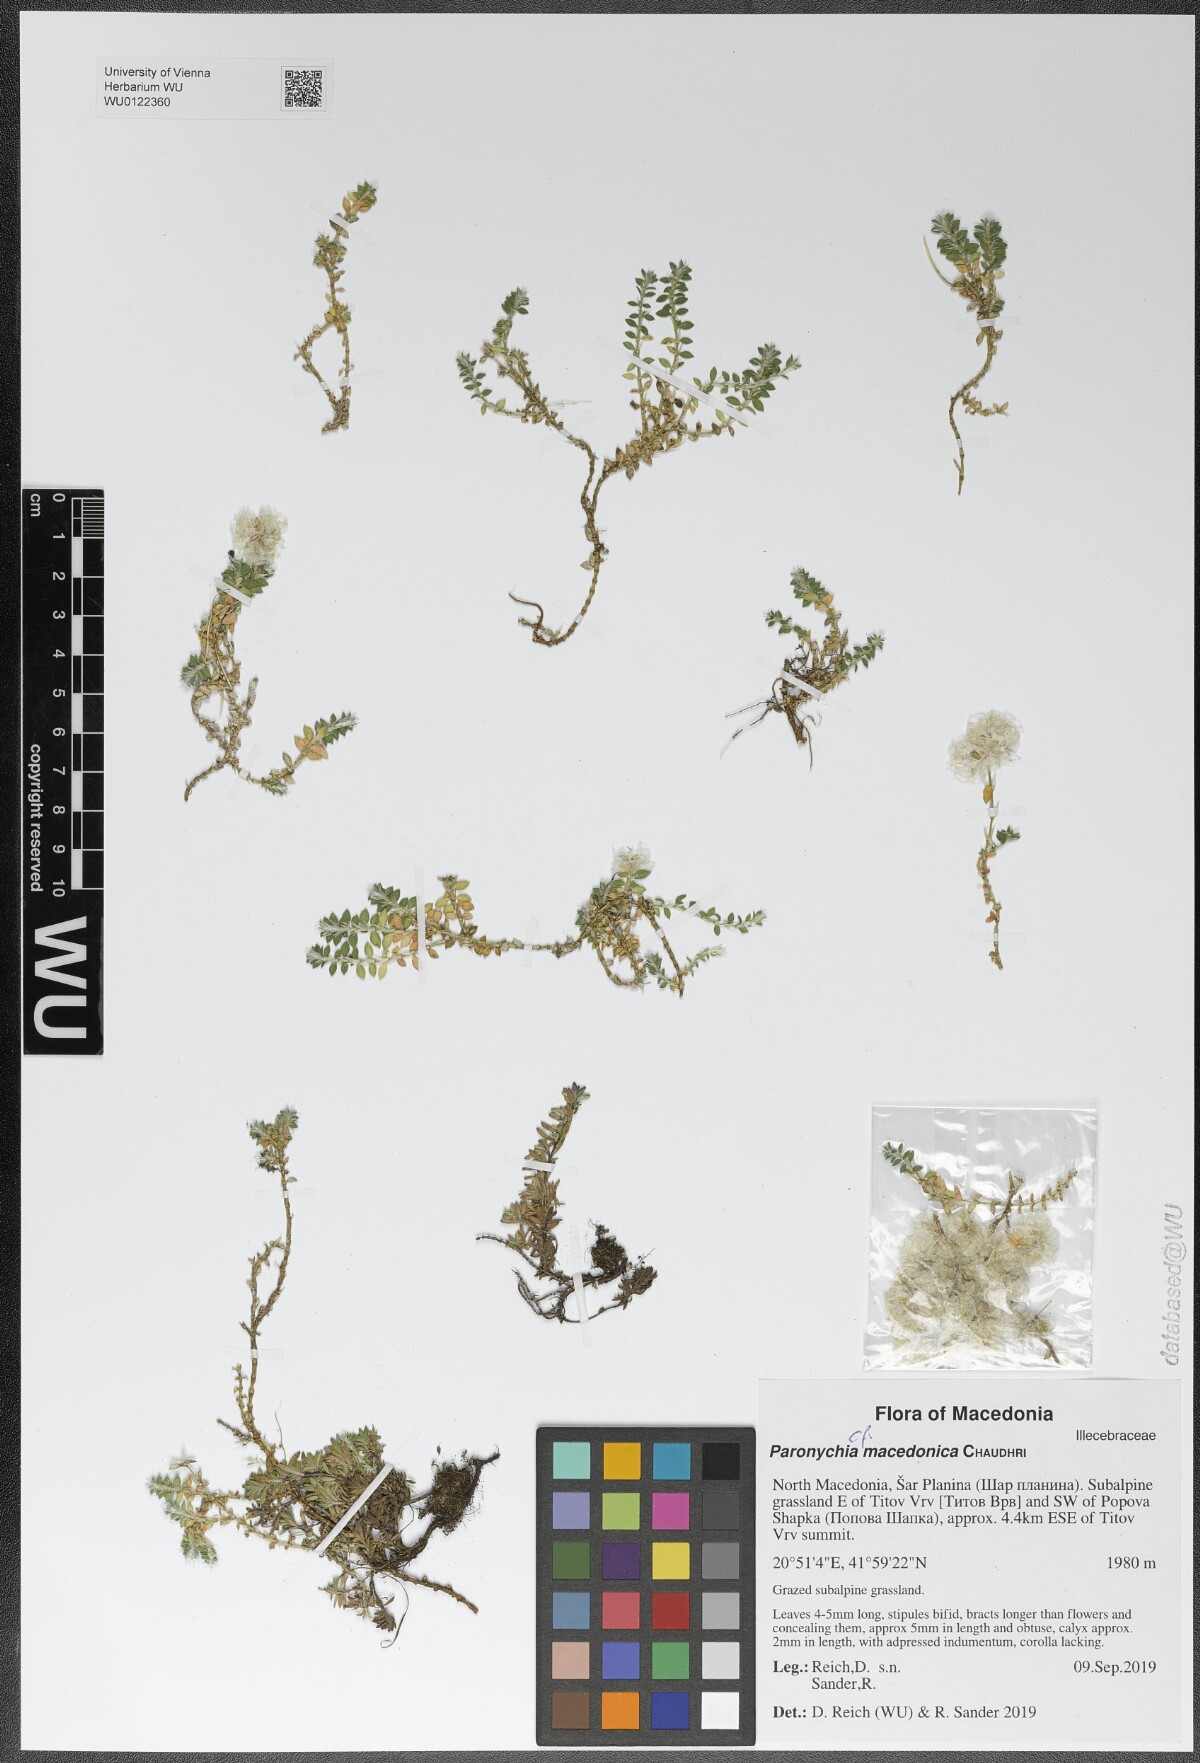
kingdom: Plantae
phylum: Tracheophyta
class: Magnoliopsida
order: Caryophyllales
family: Caryophyllaceae
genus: Paronychia
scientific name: Paronychia macedonica
